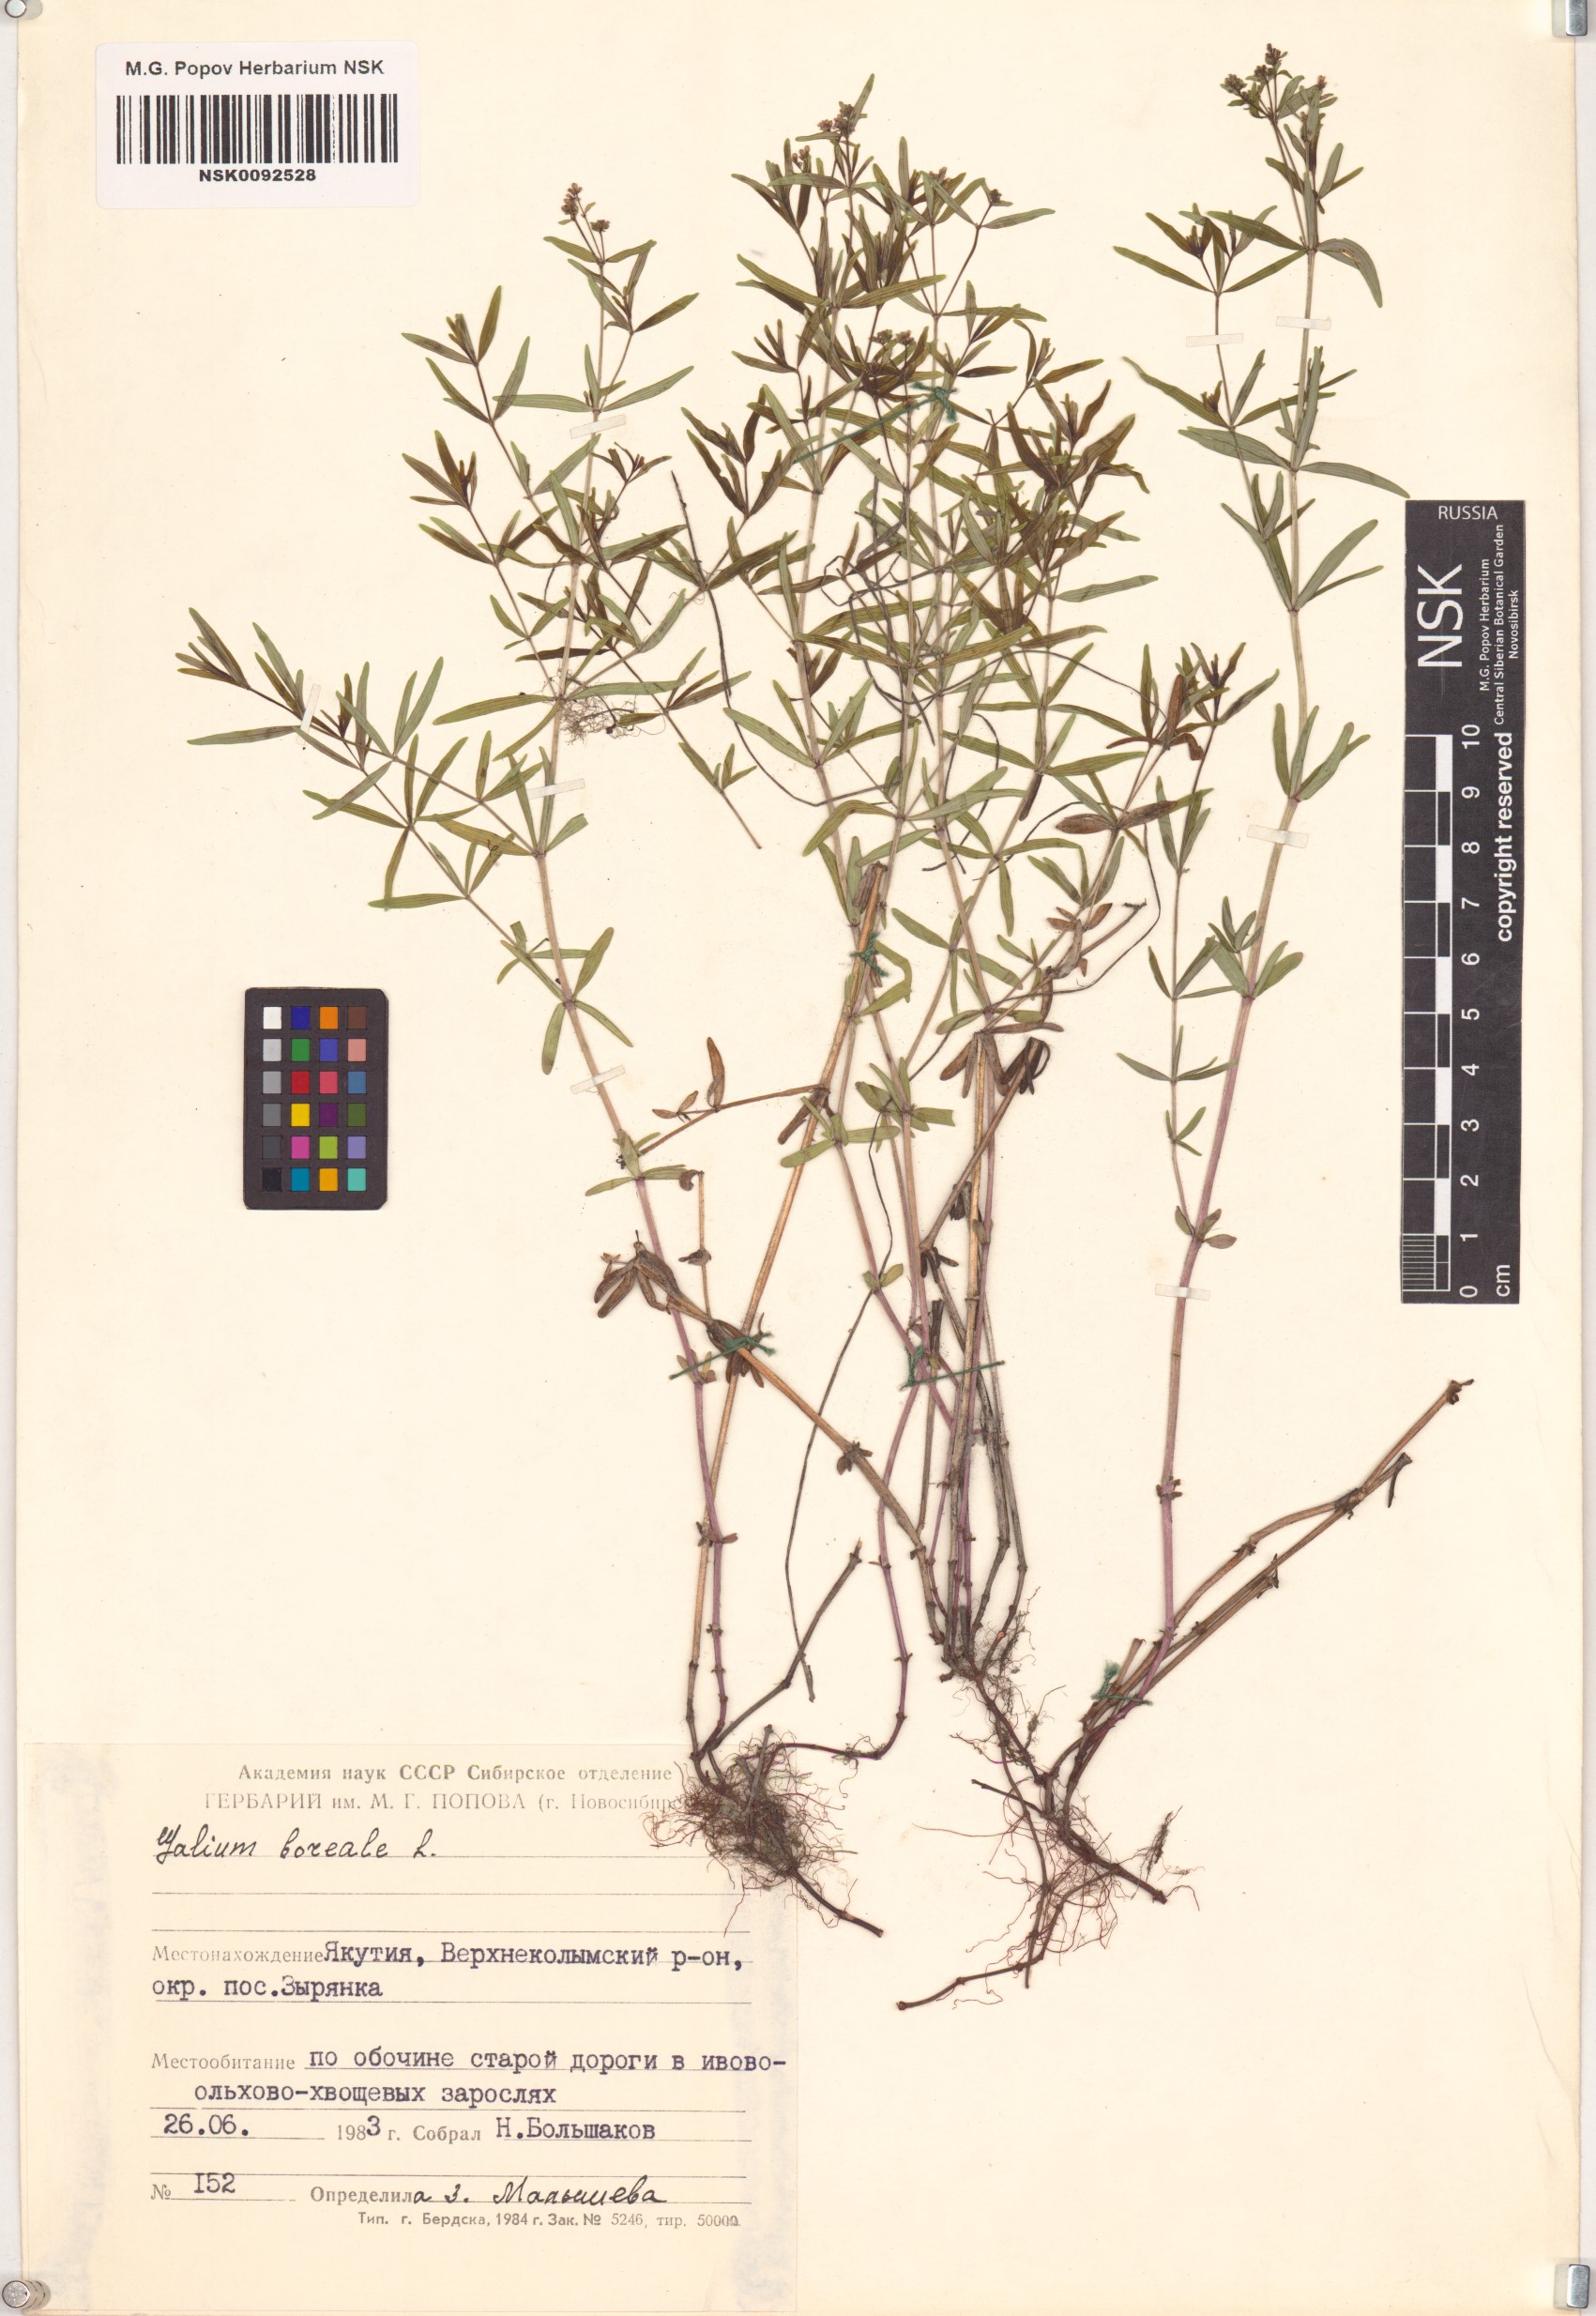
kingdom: Plantae
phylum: Tracheophyta
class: Magnoliopsida
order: Gentianales
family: Rubiaceae
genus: Galium
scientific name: Galium boreale
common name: Northern bedstraw
